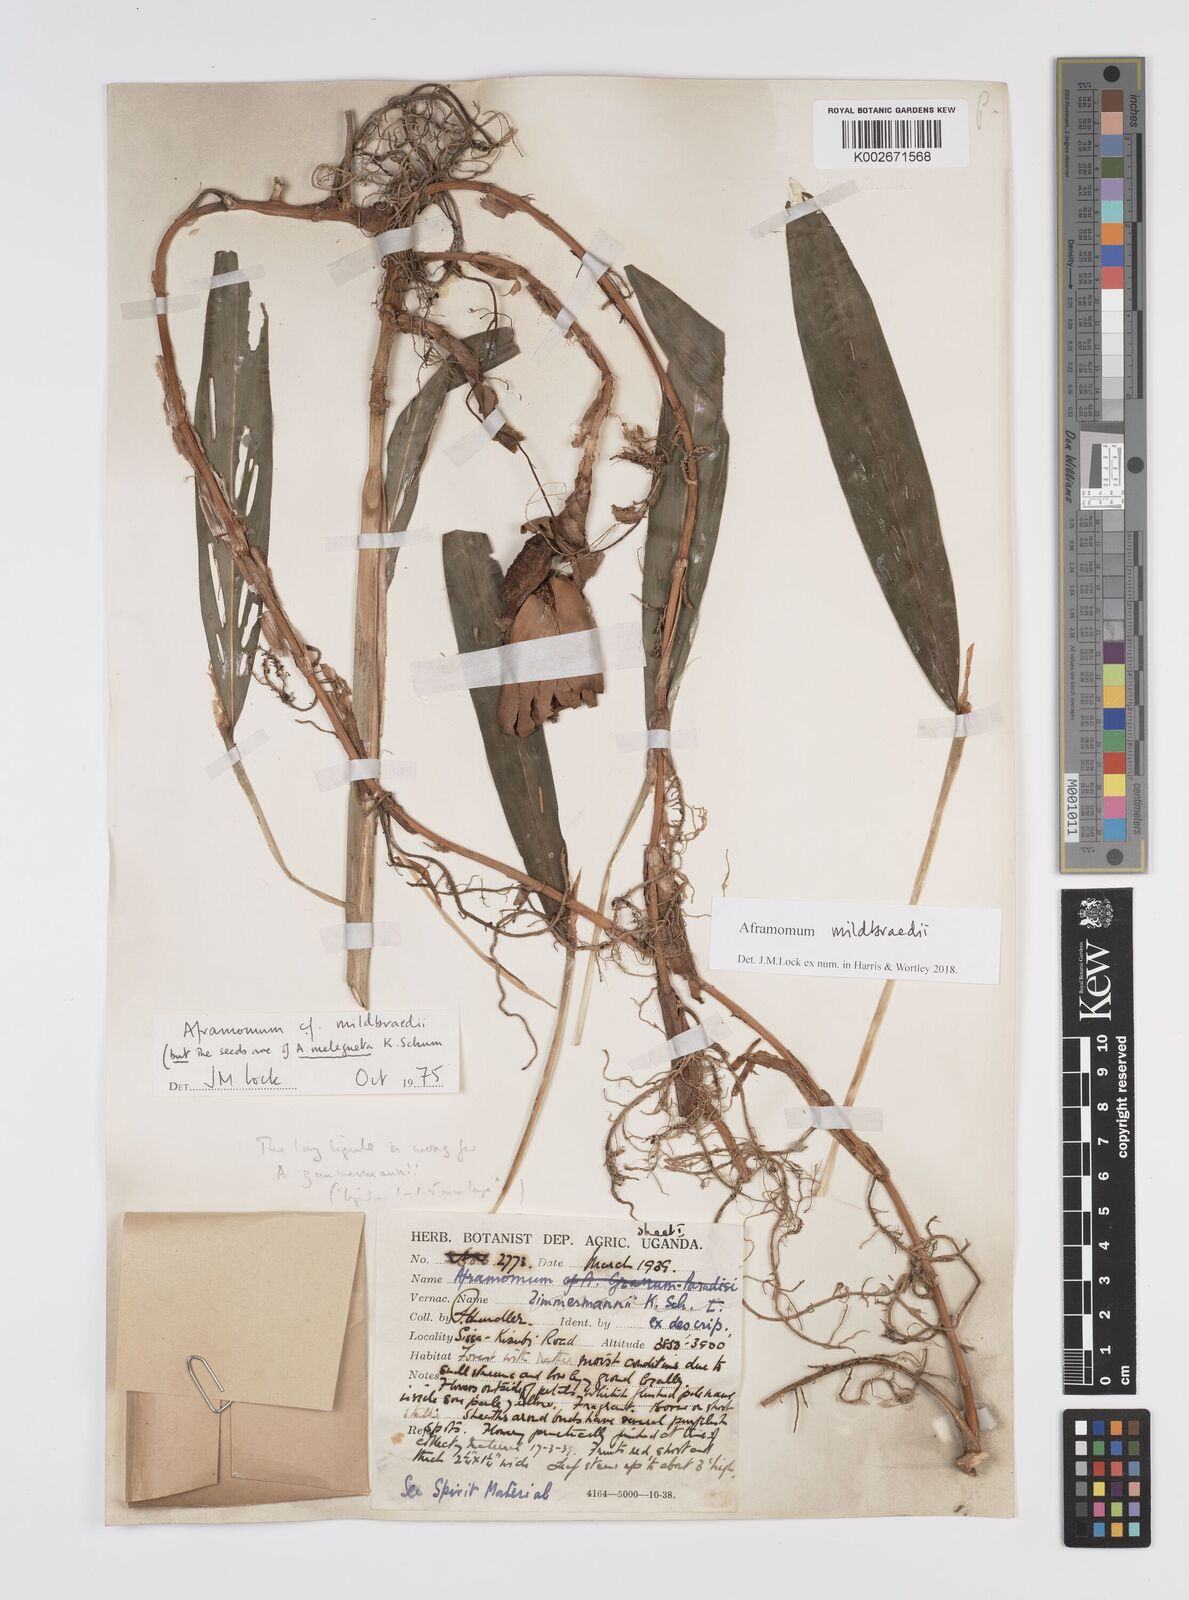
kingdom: Plantae
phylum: Tracheophyta
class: Liliopsida
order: Zingiberales
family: Zingiberaceae
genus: Aframomum
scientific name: Aframomum mildbraedii
